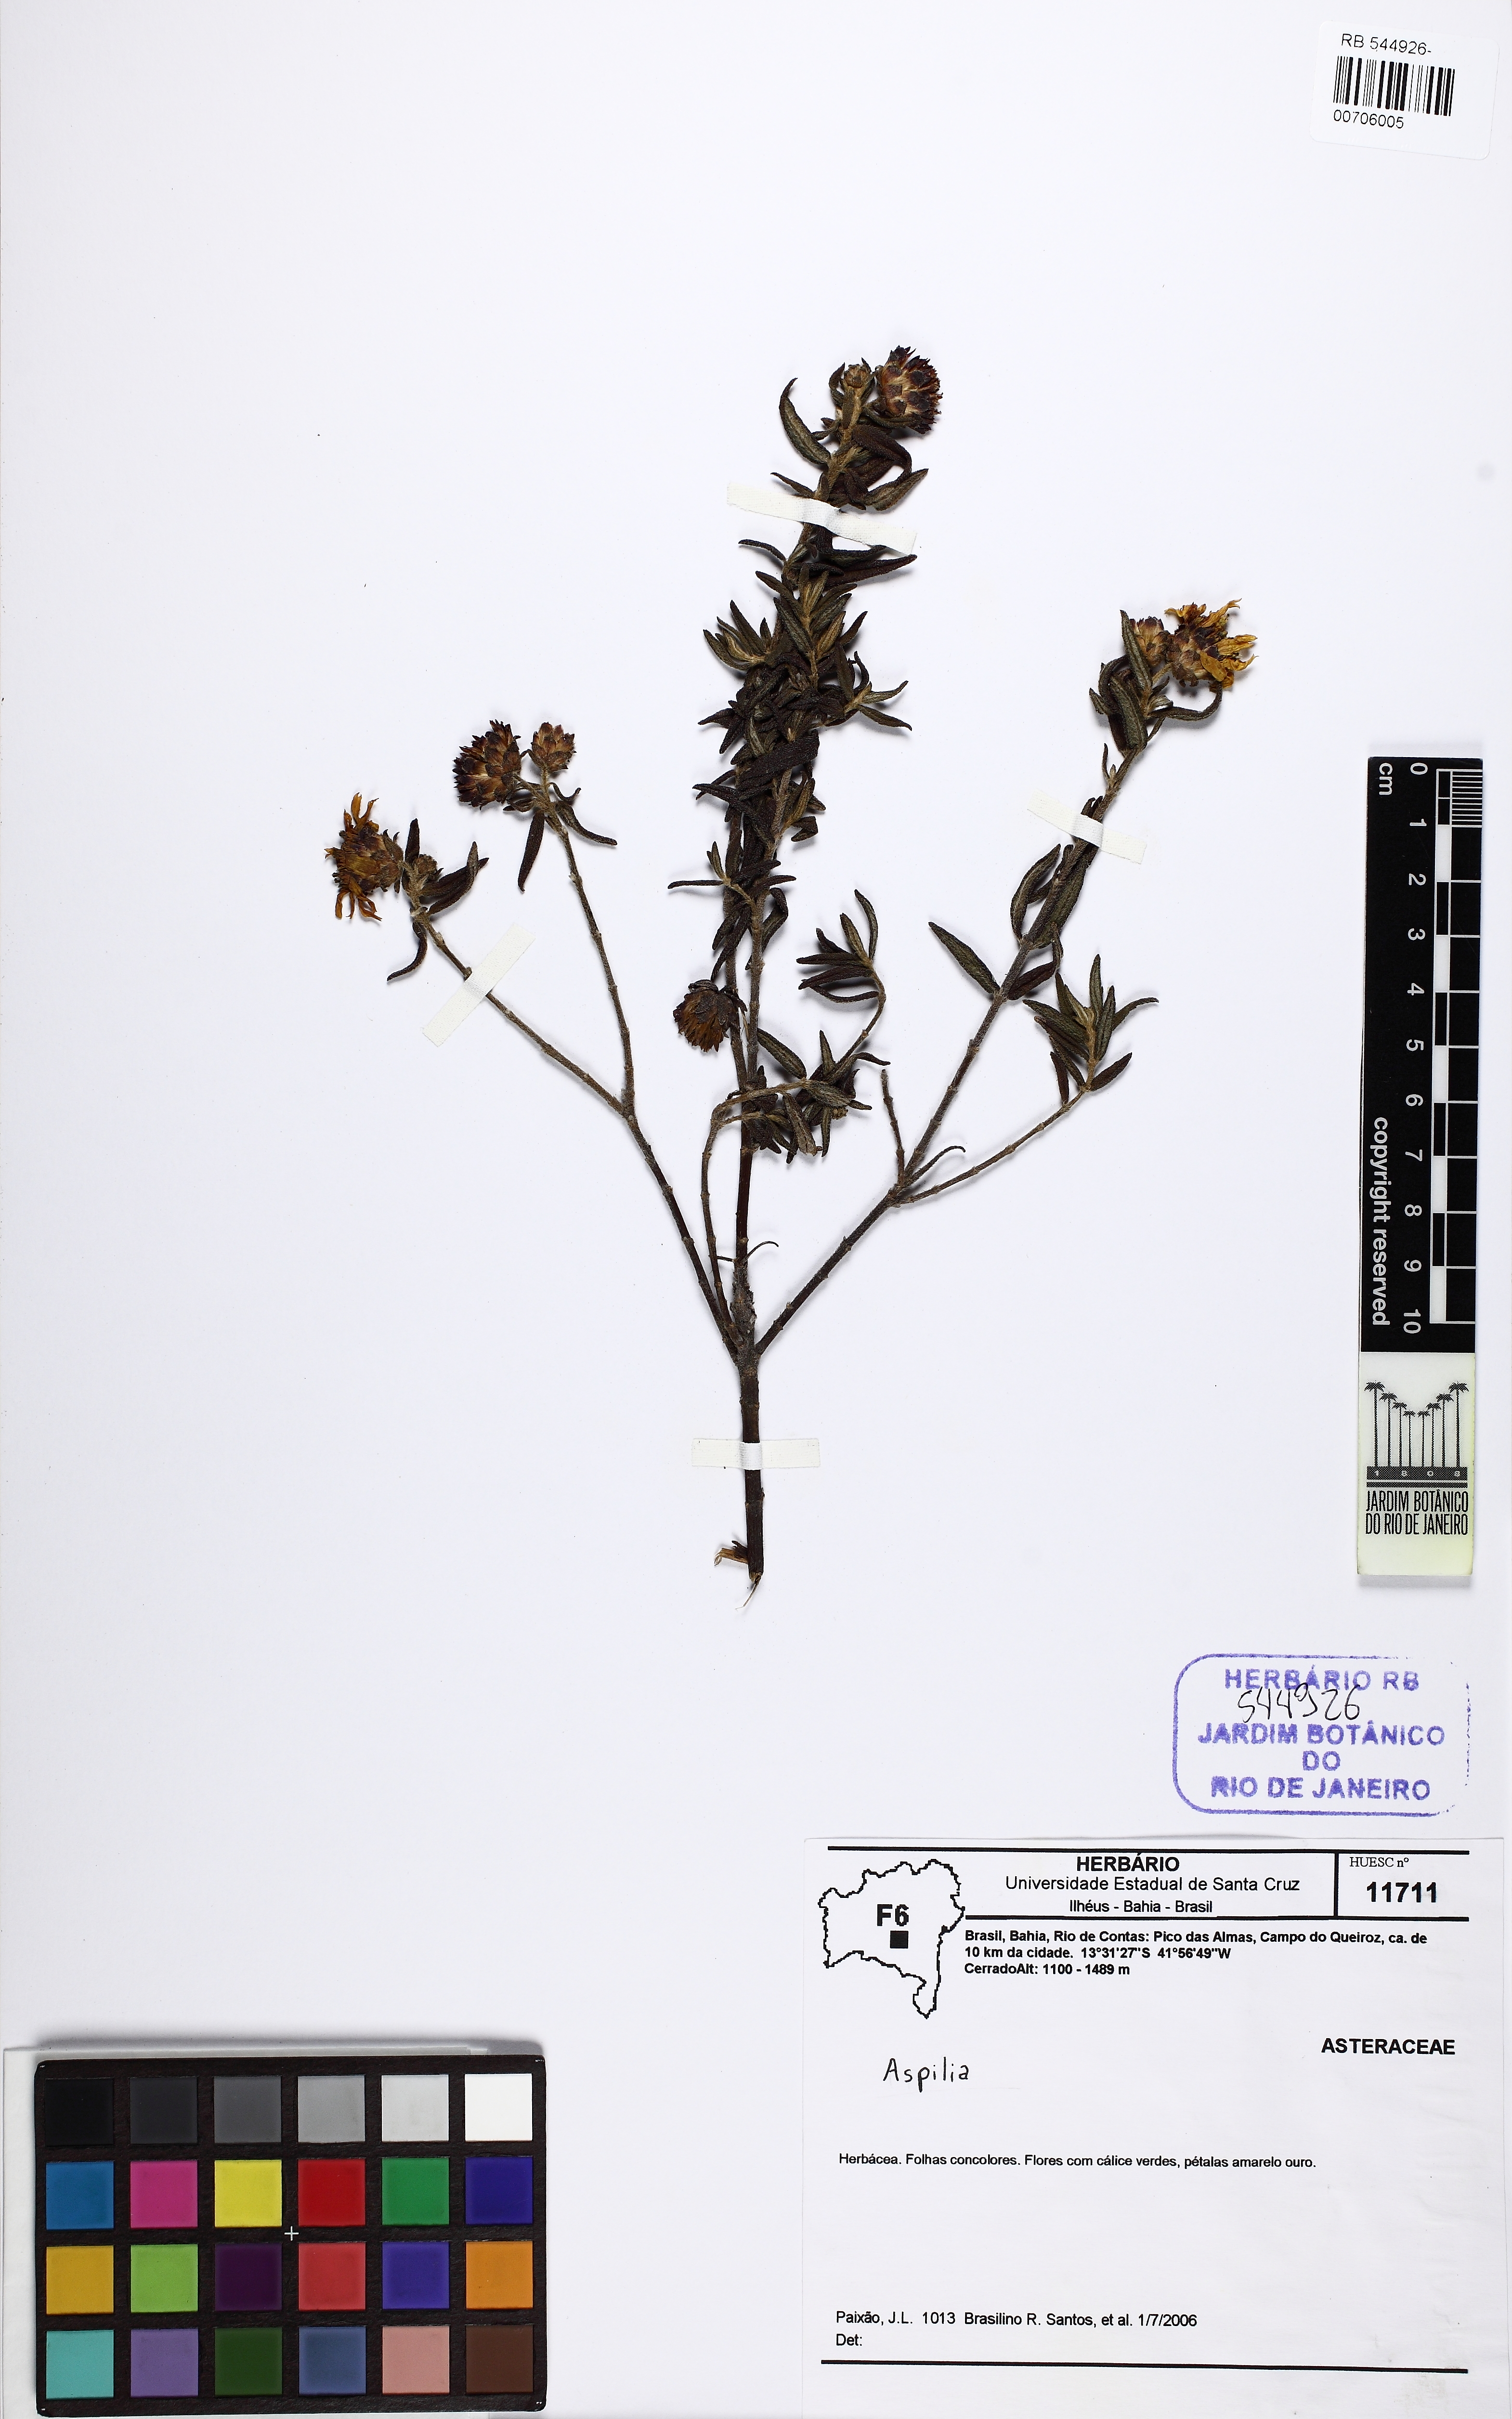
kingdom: Plantae
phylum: Tracheophyta
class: Magnoliopsida
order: Asterales
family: Asteraceae
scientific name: Asteraceae
